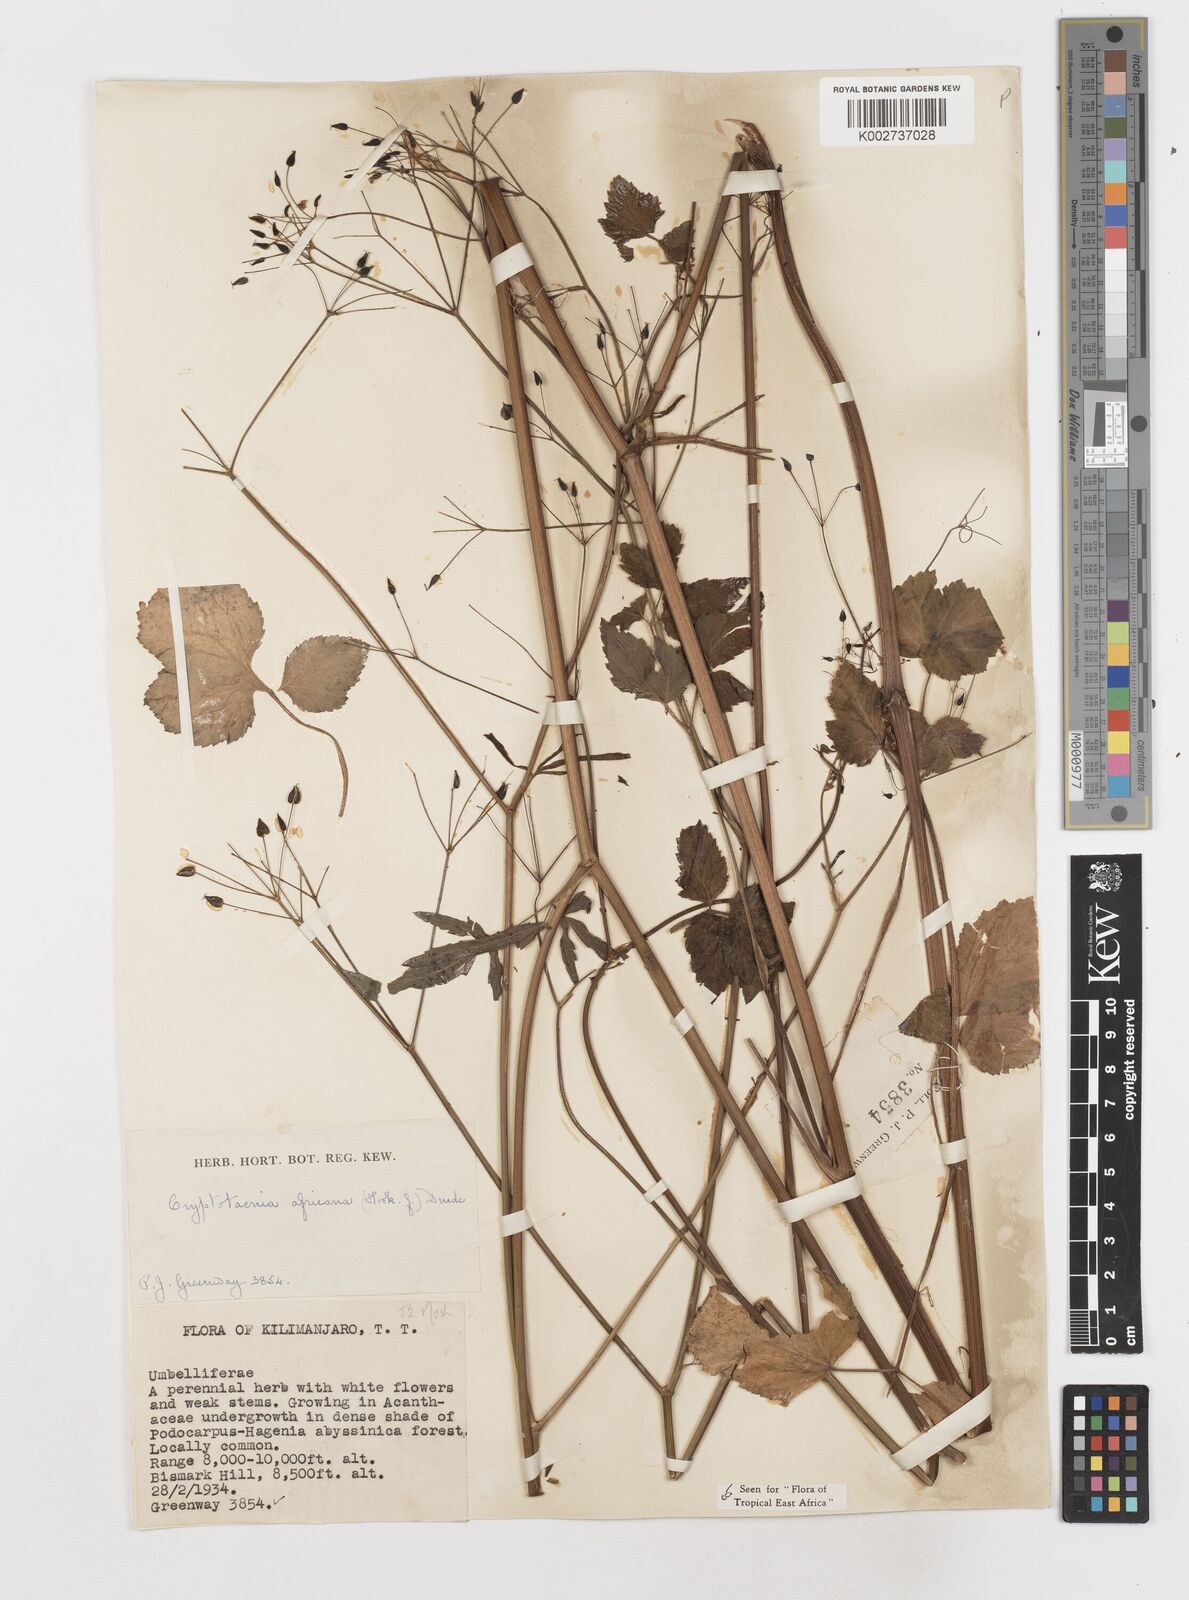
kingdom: Plantae
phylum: Tracheophyta
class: Magnoliopsida
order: Apiales
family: Apiaceae
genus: Cryptotaenia
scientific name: Cryptotaenia africana
